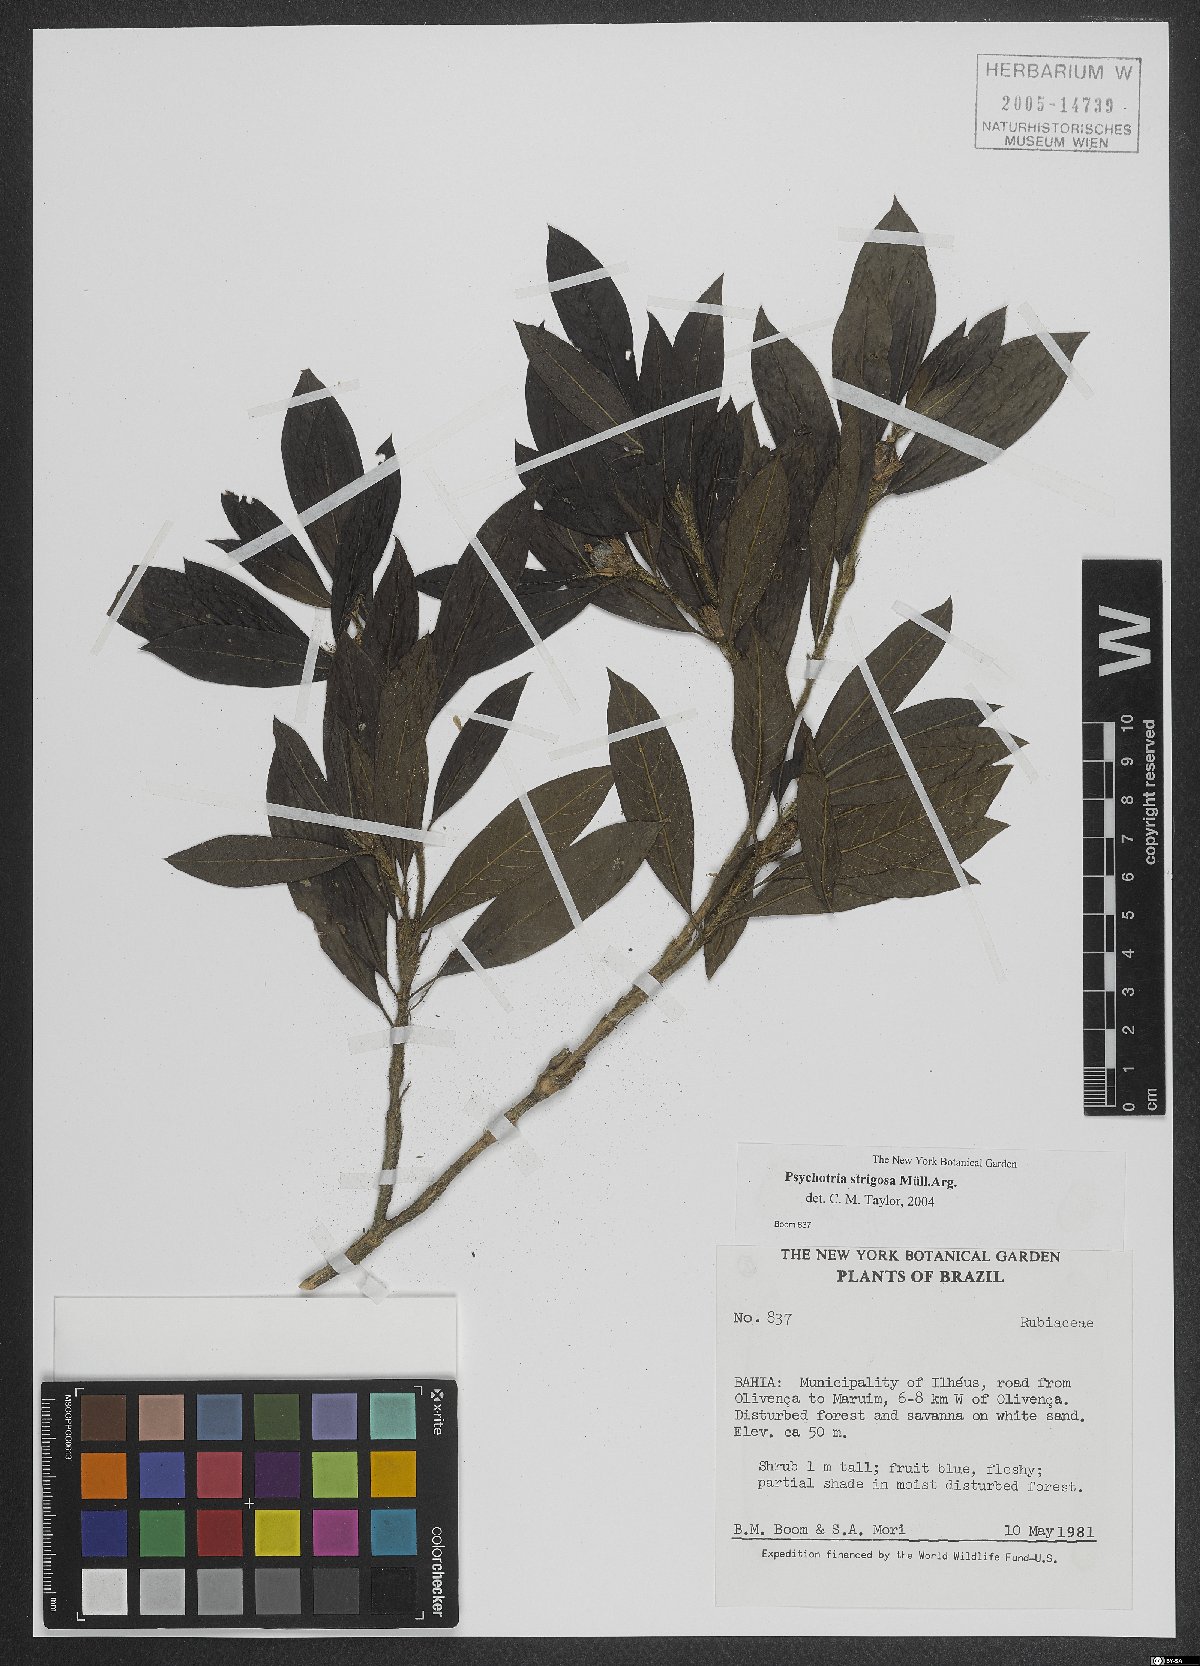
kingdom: Plantae
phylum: Tracheophyta
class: Magnoliopsida
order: Gentianales
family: Rubiaceae
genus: Psychotria
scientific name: Psychotria strigosa
